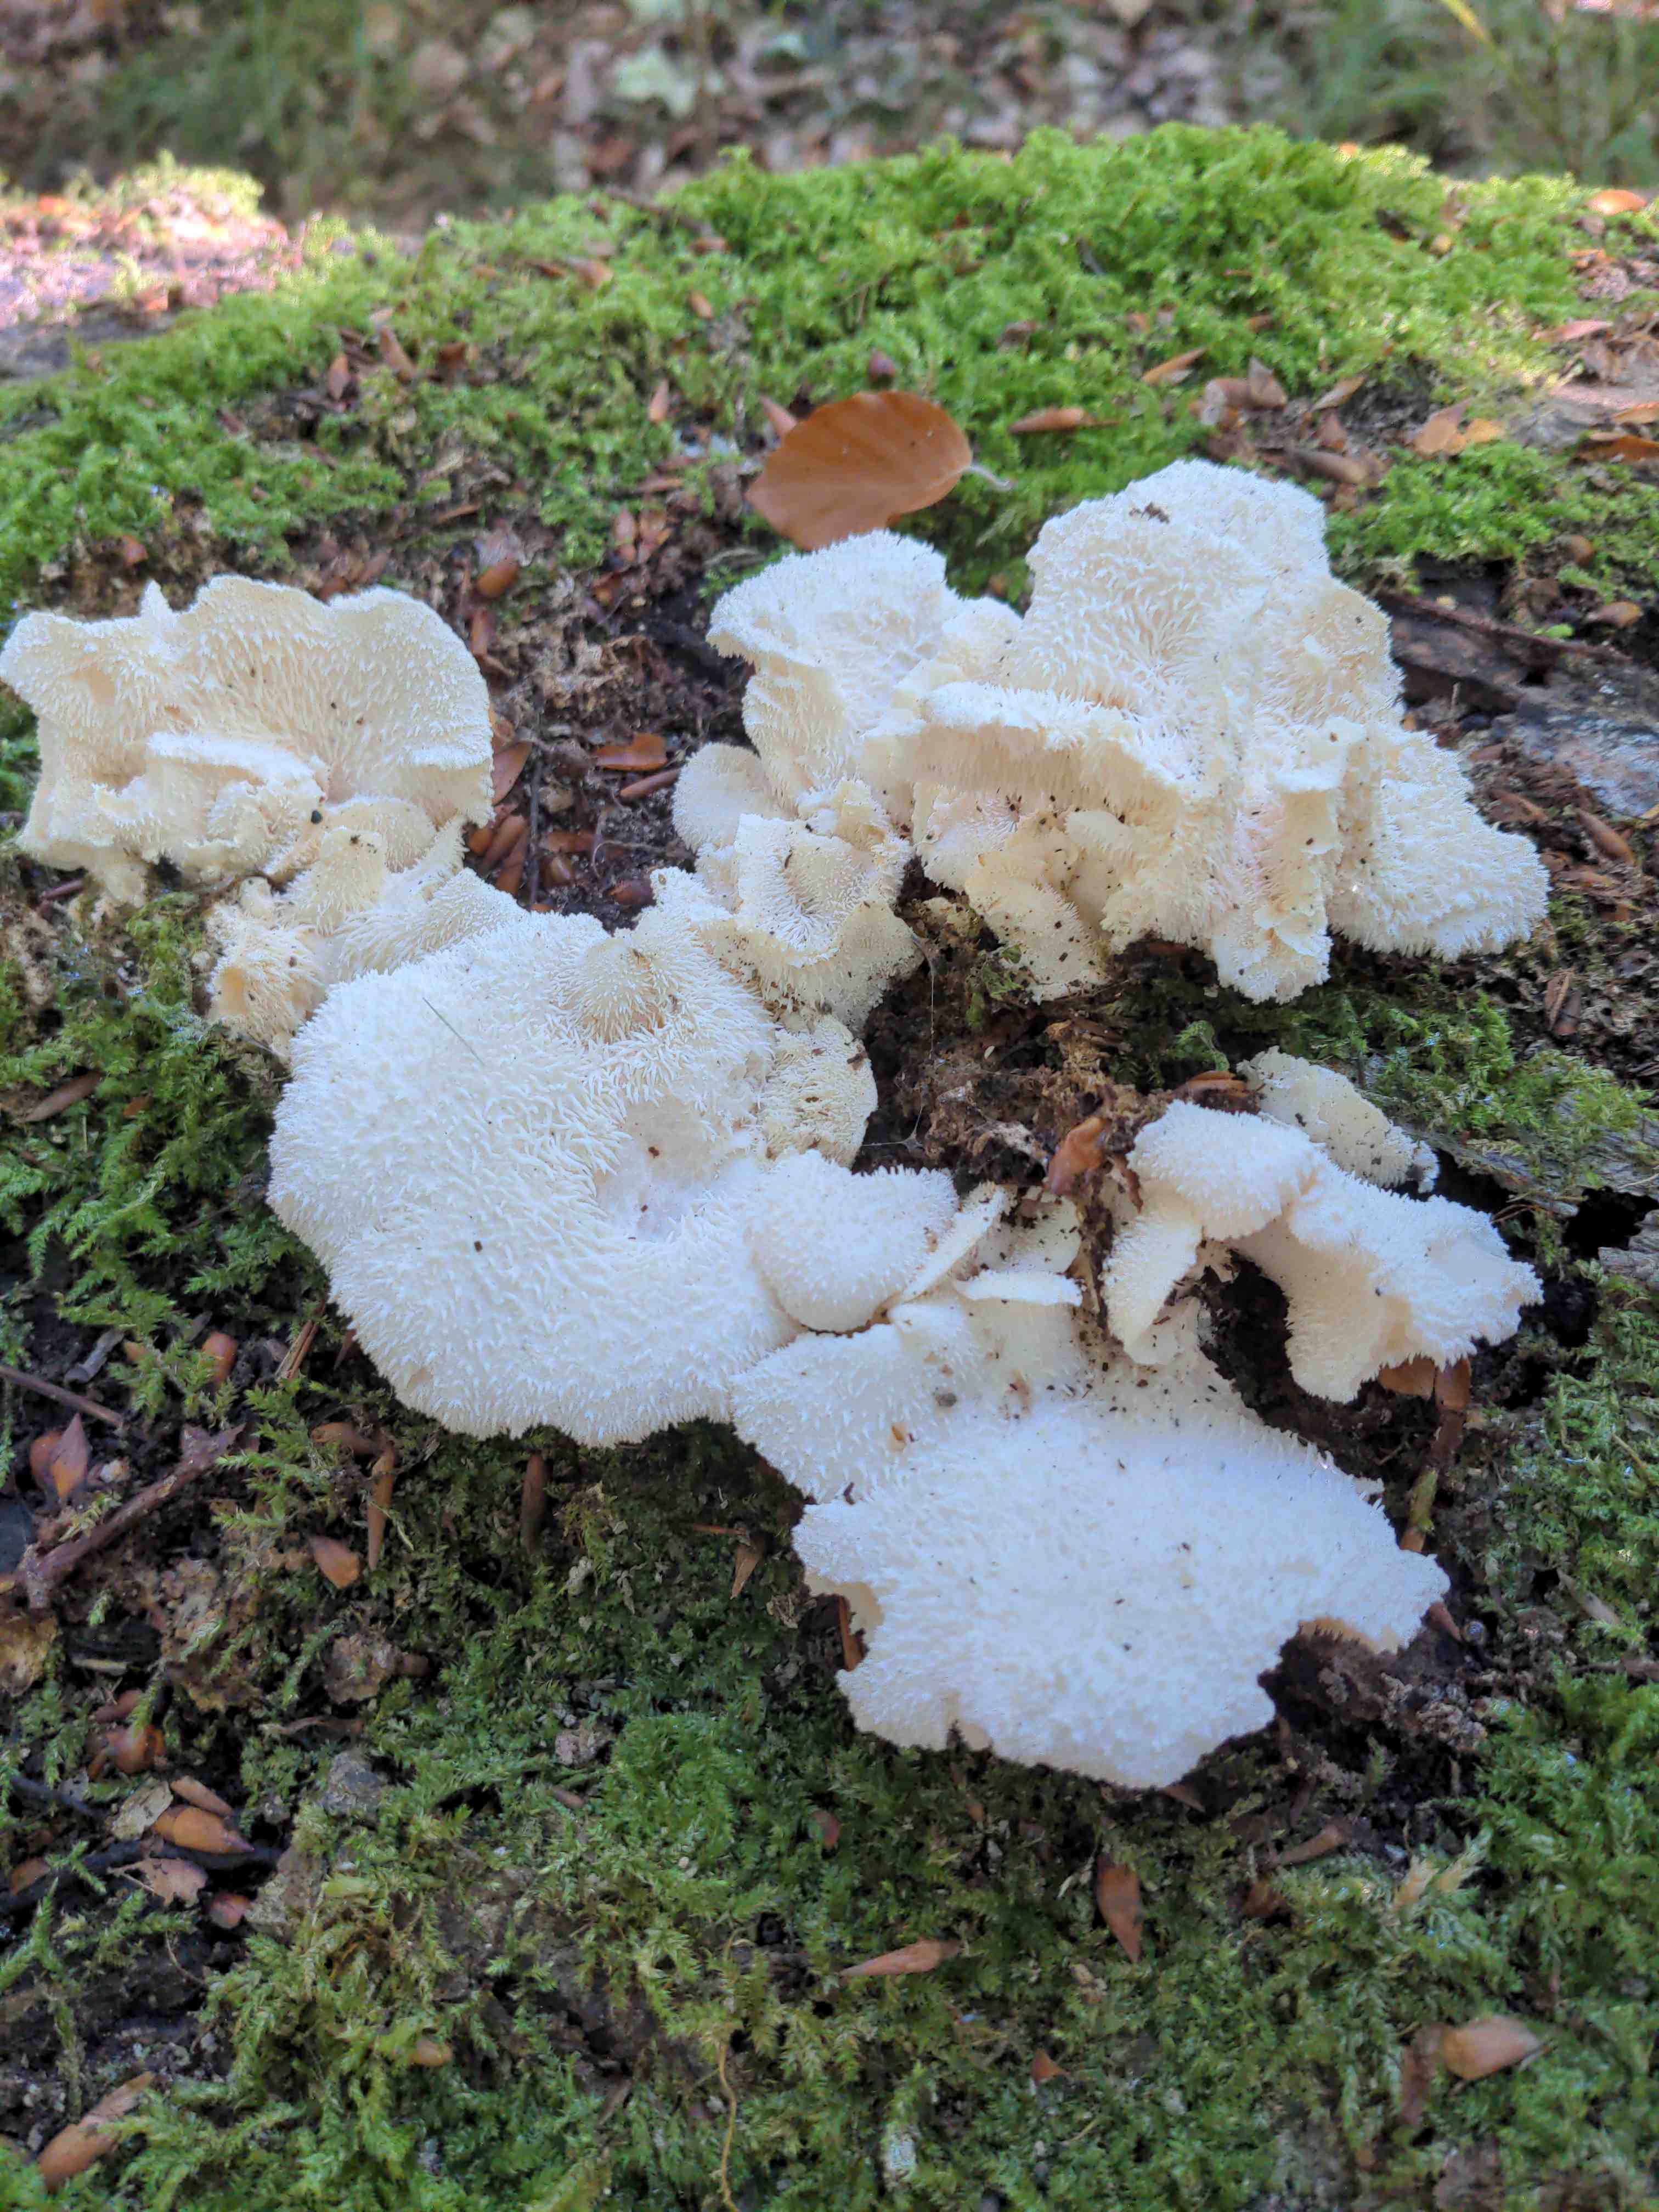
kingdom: Fungi
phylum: Basidiomycota
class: Agaricomycetes
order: Russulales
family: Hericiaceae
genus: Hericium
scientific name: Hericium cirrhatum
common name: børstepigsvamp
